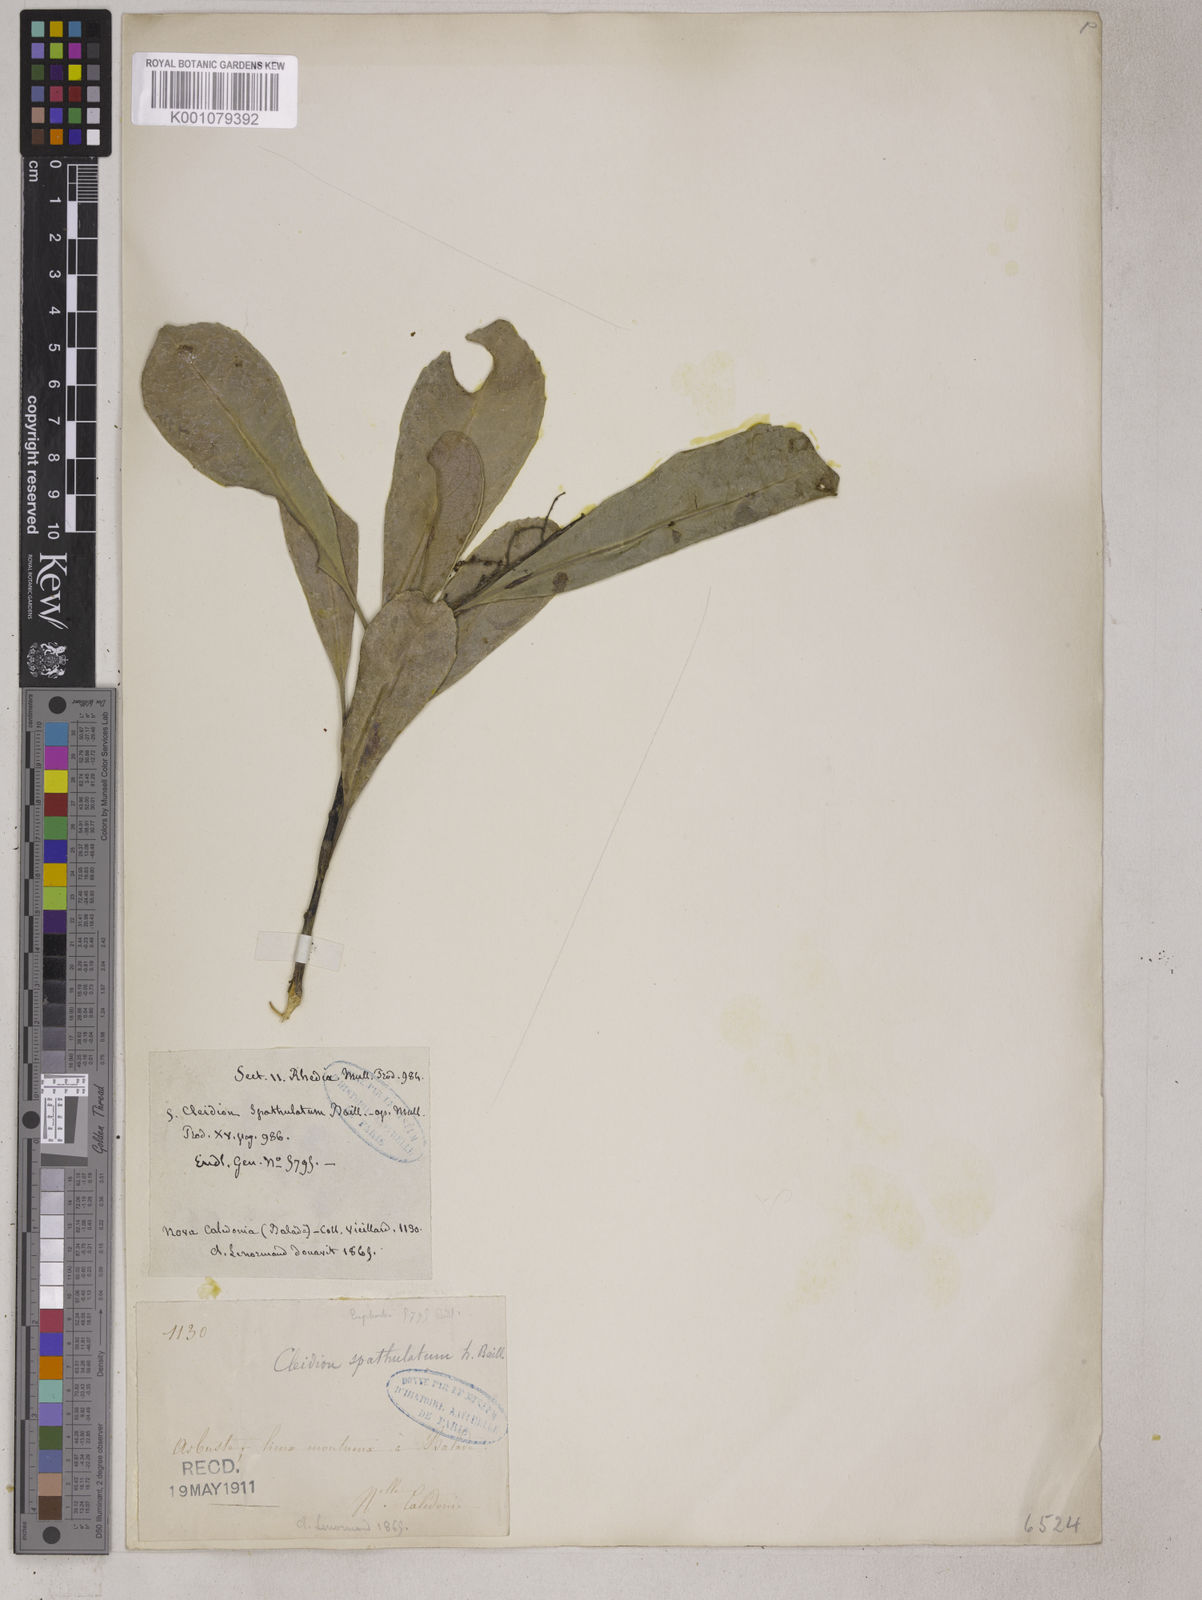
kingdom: Plantae
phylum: Tracheophyta
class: Magnoliopsida
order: Malpighiales
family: Euphorbiaceae
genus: Cleidion
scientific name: Cleidion spathulatum
